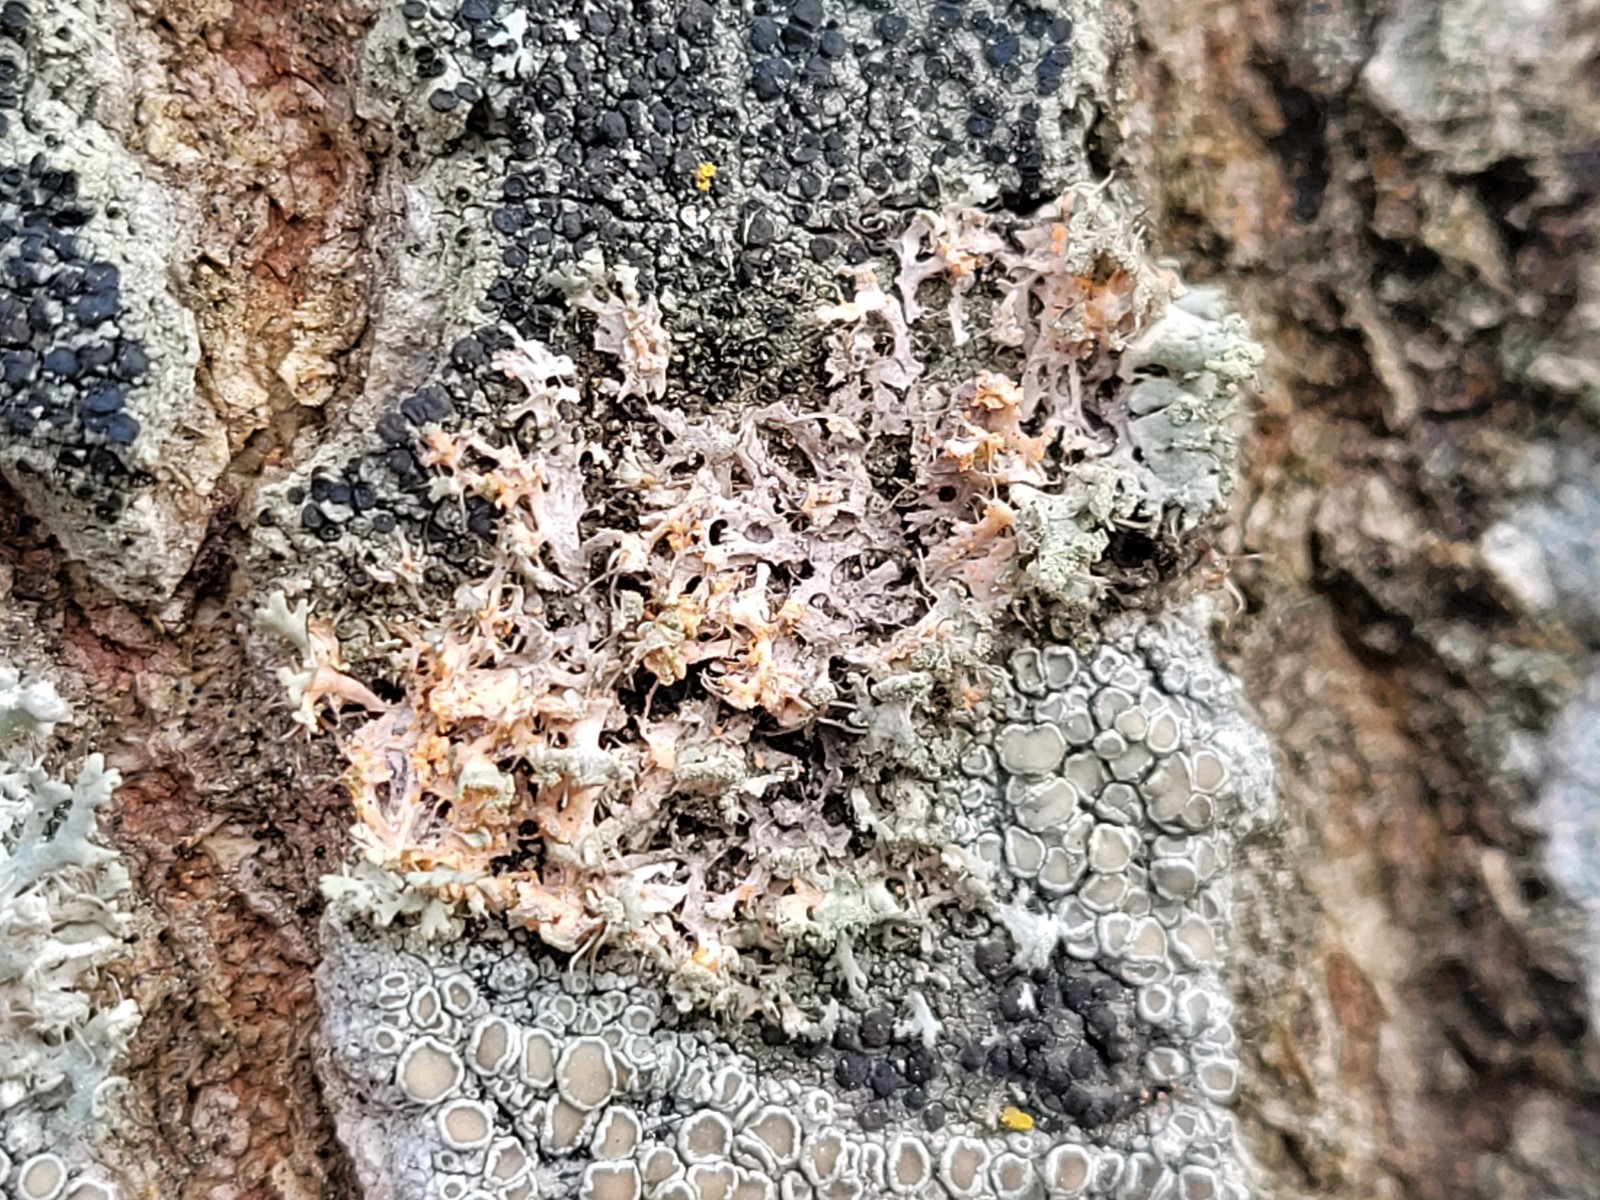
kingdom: Fungi
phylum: Basidiomycota
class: Agaricomycetes
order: Corticiales
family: Corticiaceae
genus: Erythricium
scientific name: Erythricium aurantiacum
